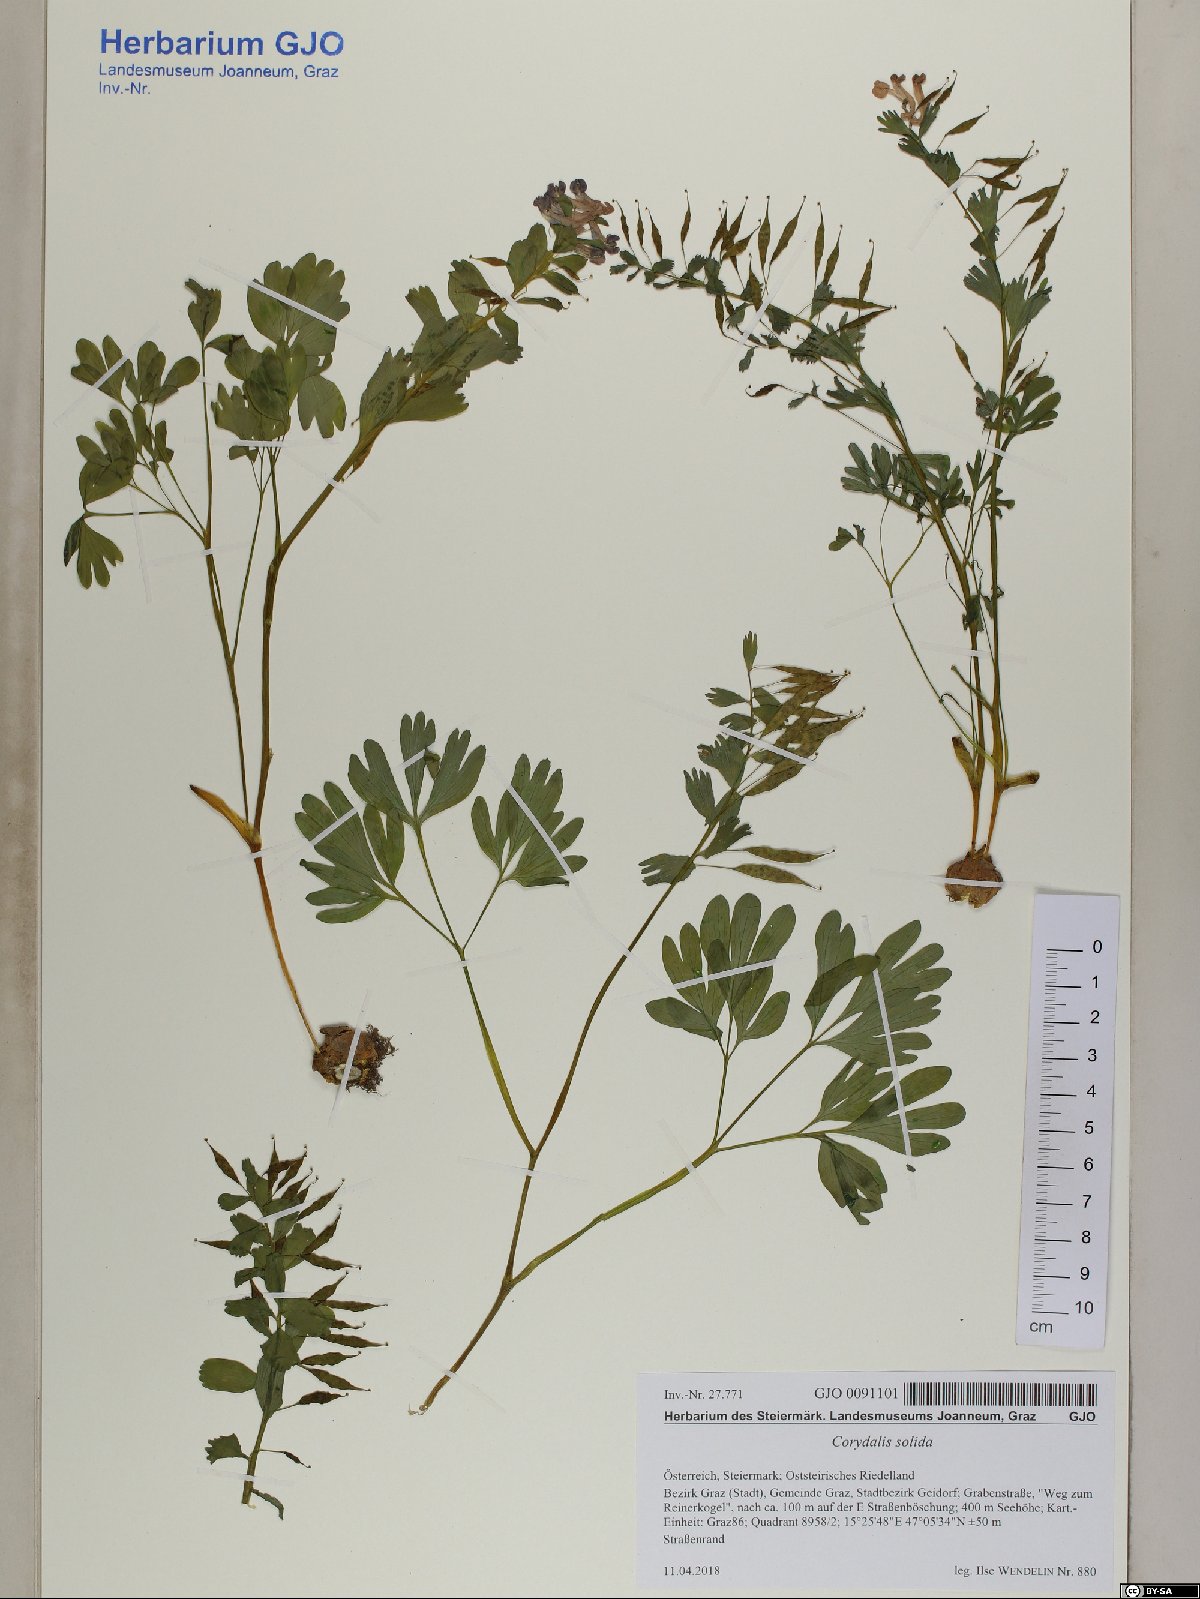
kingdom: Plantae
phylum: Tracheophyta
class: Magnoliopsida
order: Ranunculales
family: Papaveraceae
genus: Corydalis
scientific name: Corydalis solida
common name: Bird-in-a-bush
